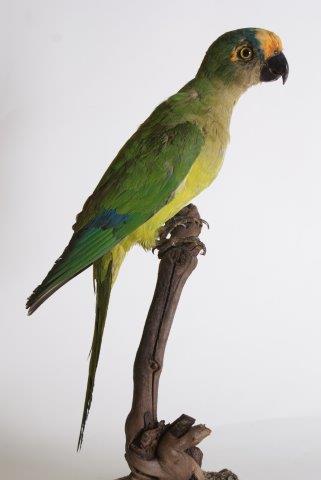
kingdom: Animalia
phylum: Chordata
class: Aves
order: Psittaciformes
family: Psittacidae
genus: Aratinga
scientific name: Aratinga aurea
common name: Peach-fronted parakeet
